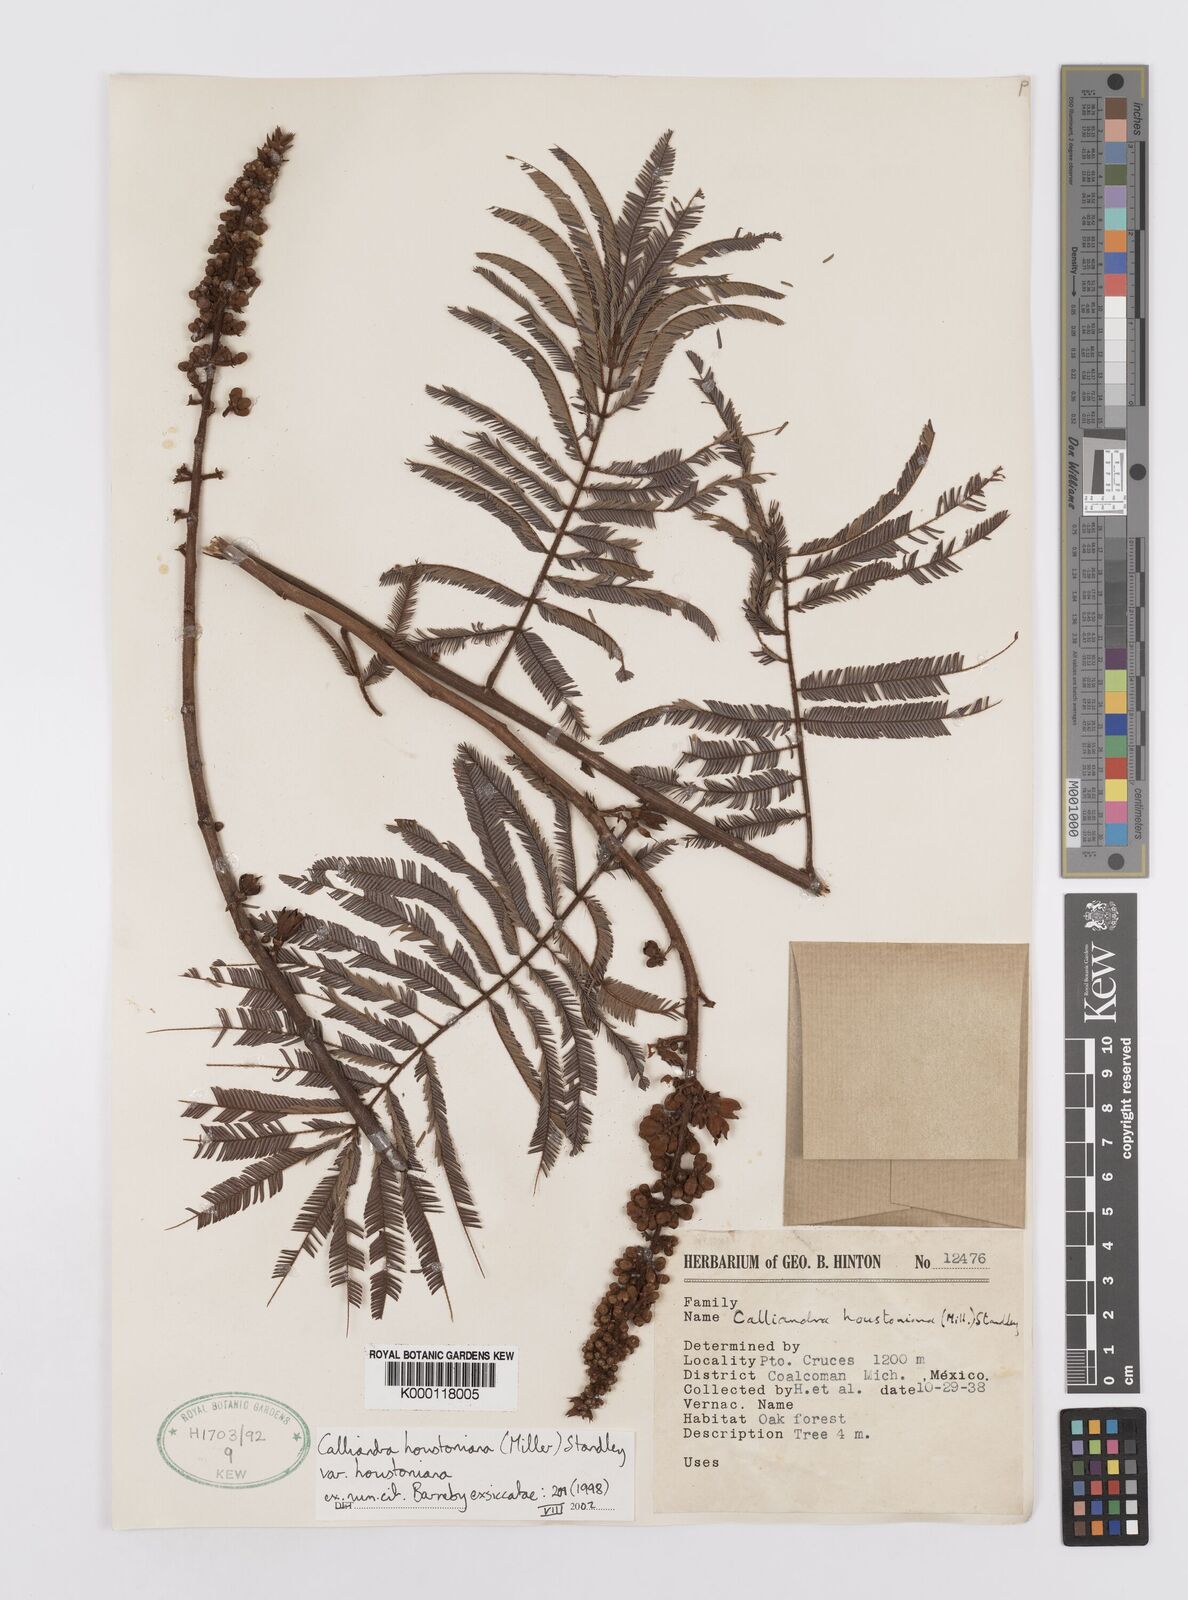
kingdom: Plantae
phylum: Tracheophyta
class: Magnoliopsida
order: Fabales
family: Fabaceae
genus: Calliandra
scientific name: Calliandra houstoniana
